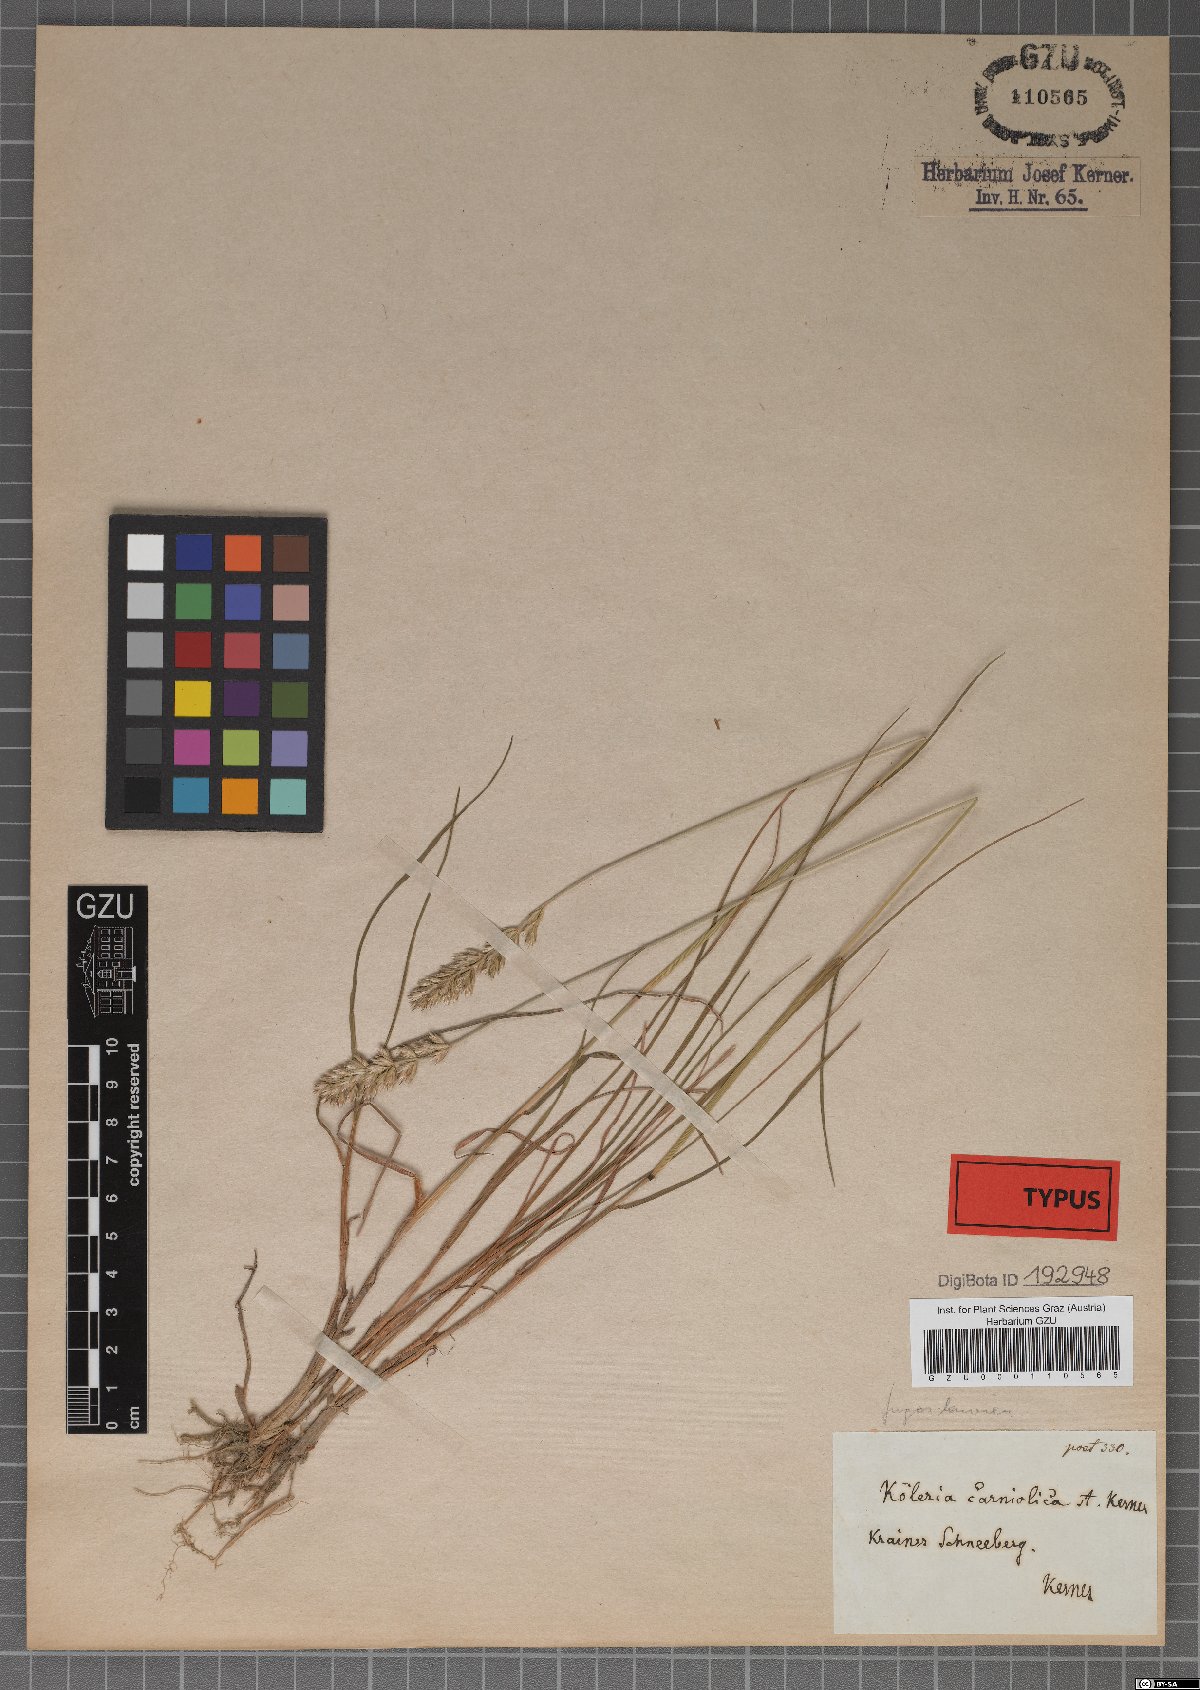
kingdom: Plantae
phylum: Tracheophyta
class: Liliopsida
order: Poales
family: Poaceae
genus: Koeleria
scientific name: Koeleria eriostachya
